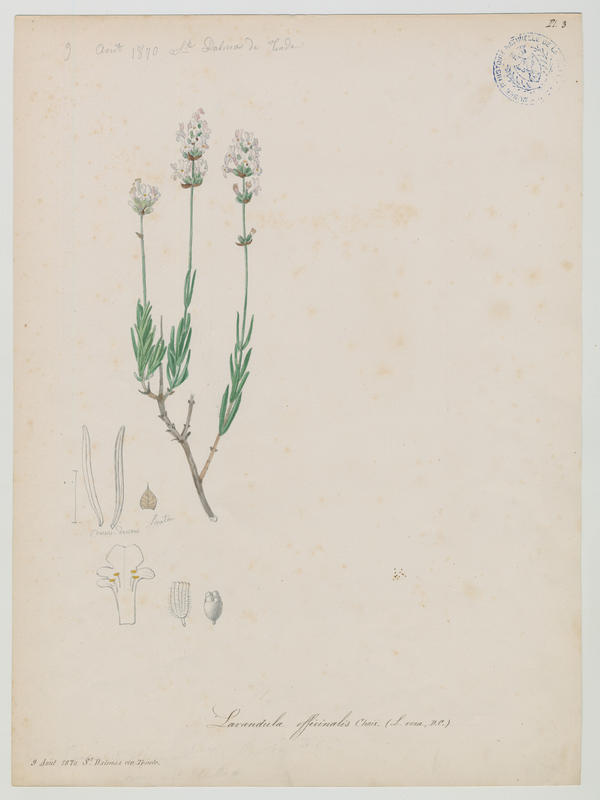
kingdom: Plantae
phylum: Tracheophyta
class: Magnoliopsida
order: Lamiales
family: Lamiaceae
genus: Lavandula
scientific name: Lavandula angustifolia
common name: Garden lavender
